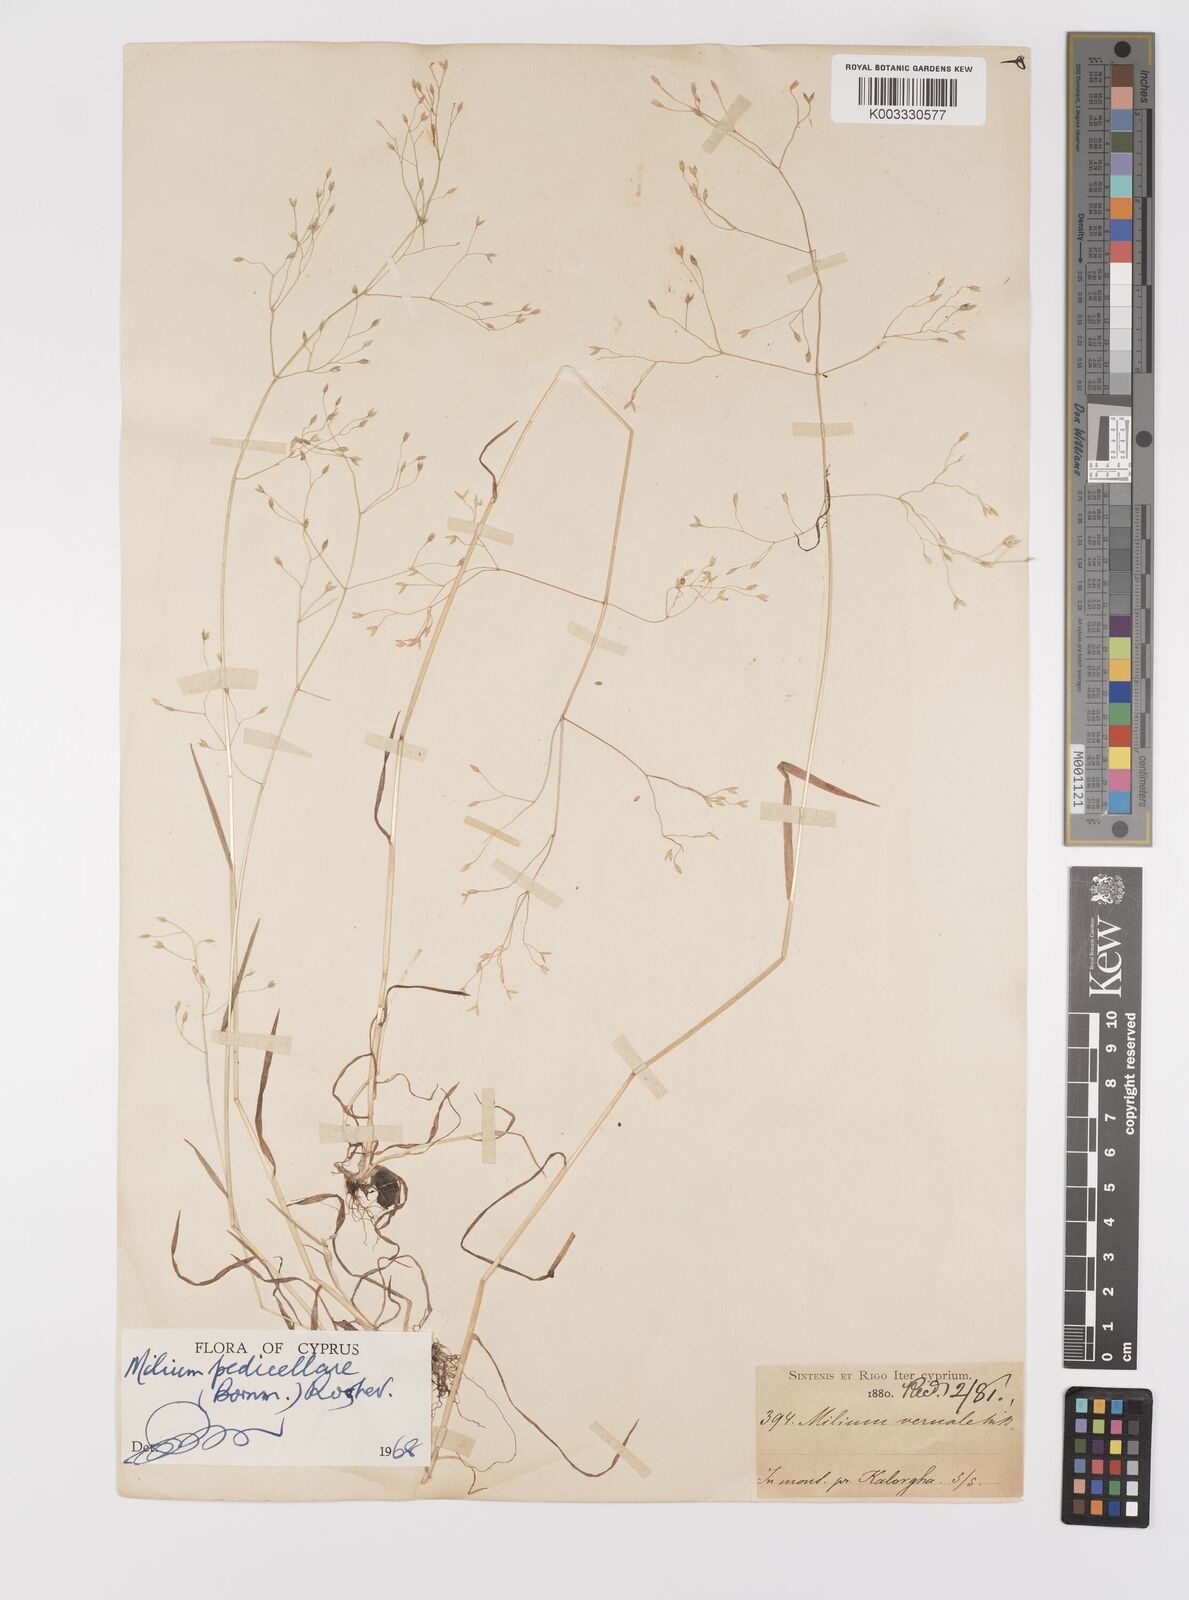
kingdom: Plantae
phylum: Tracheophyta
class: Liliopsida
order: Poales
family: Poaceae
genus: Milium
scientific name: Milium pedicellare
